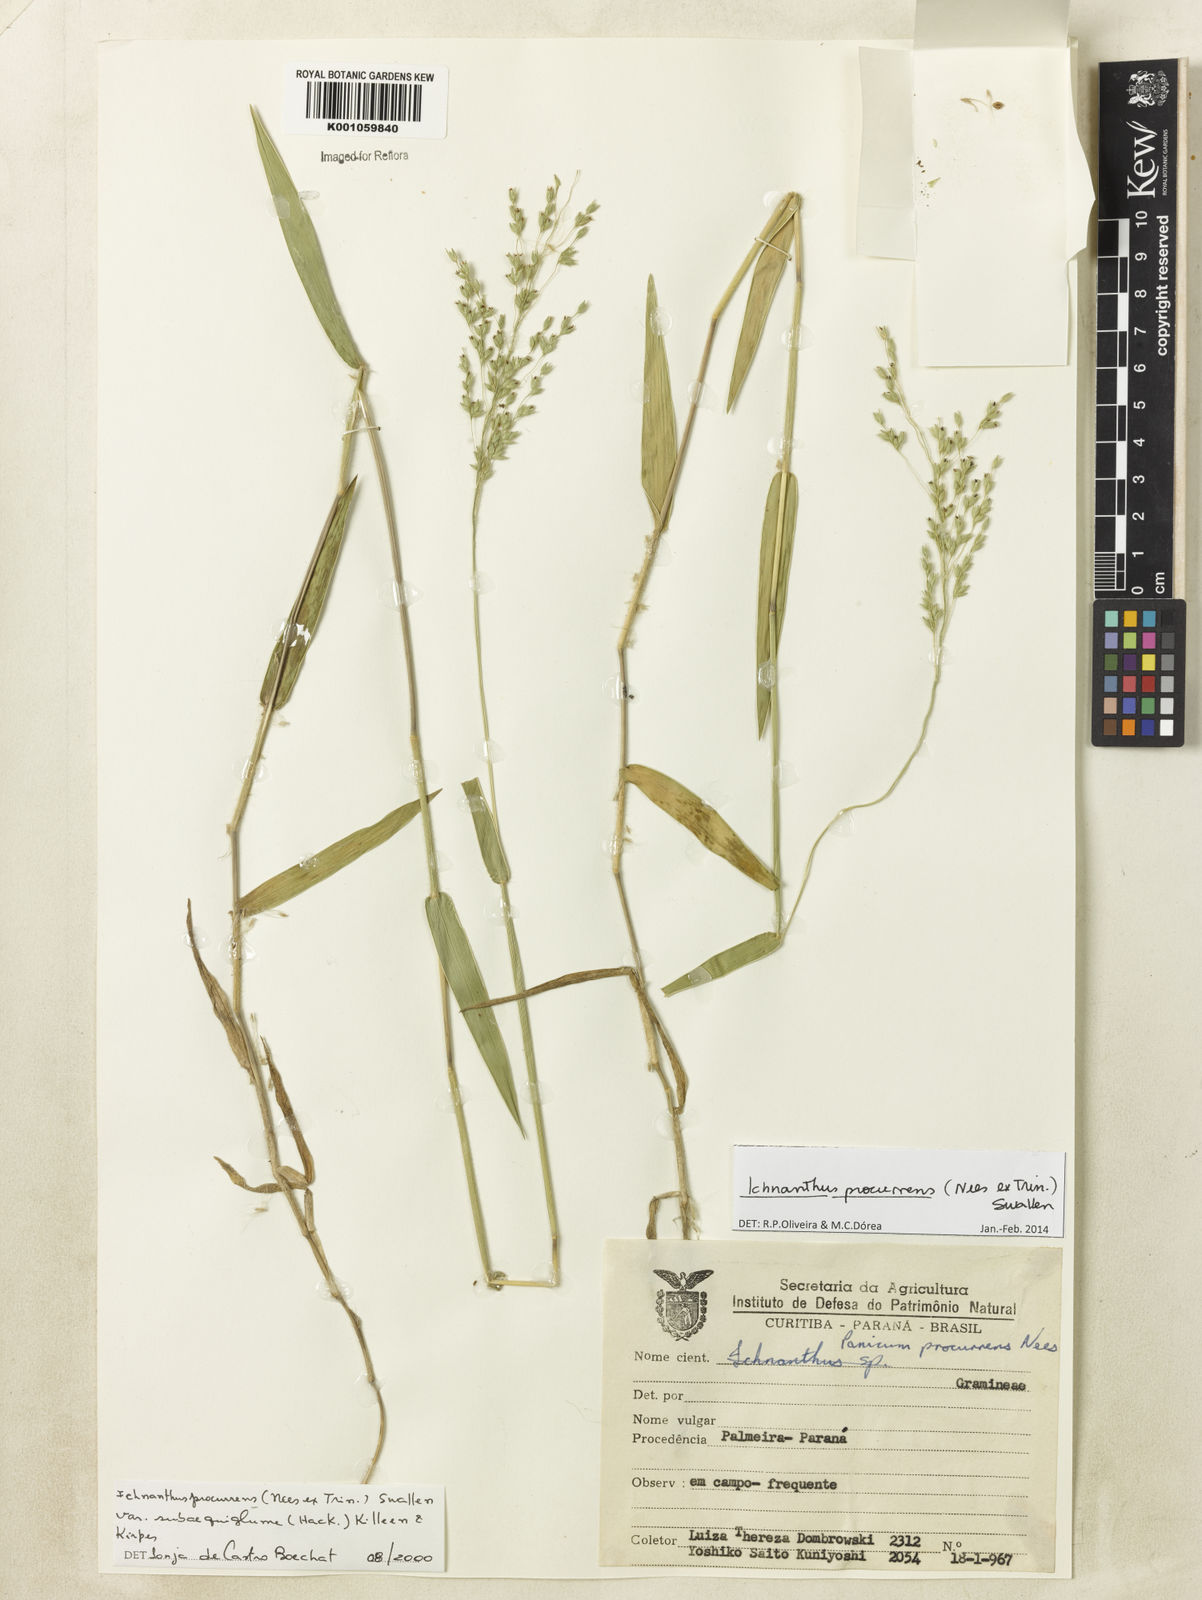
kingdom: Plantae
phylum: Tracheophyta
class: Liliopsida
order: Poales
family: Poaceae
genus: Oedochloa
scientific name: Oedochloa procurrens
